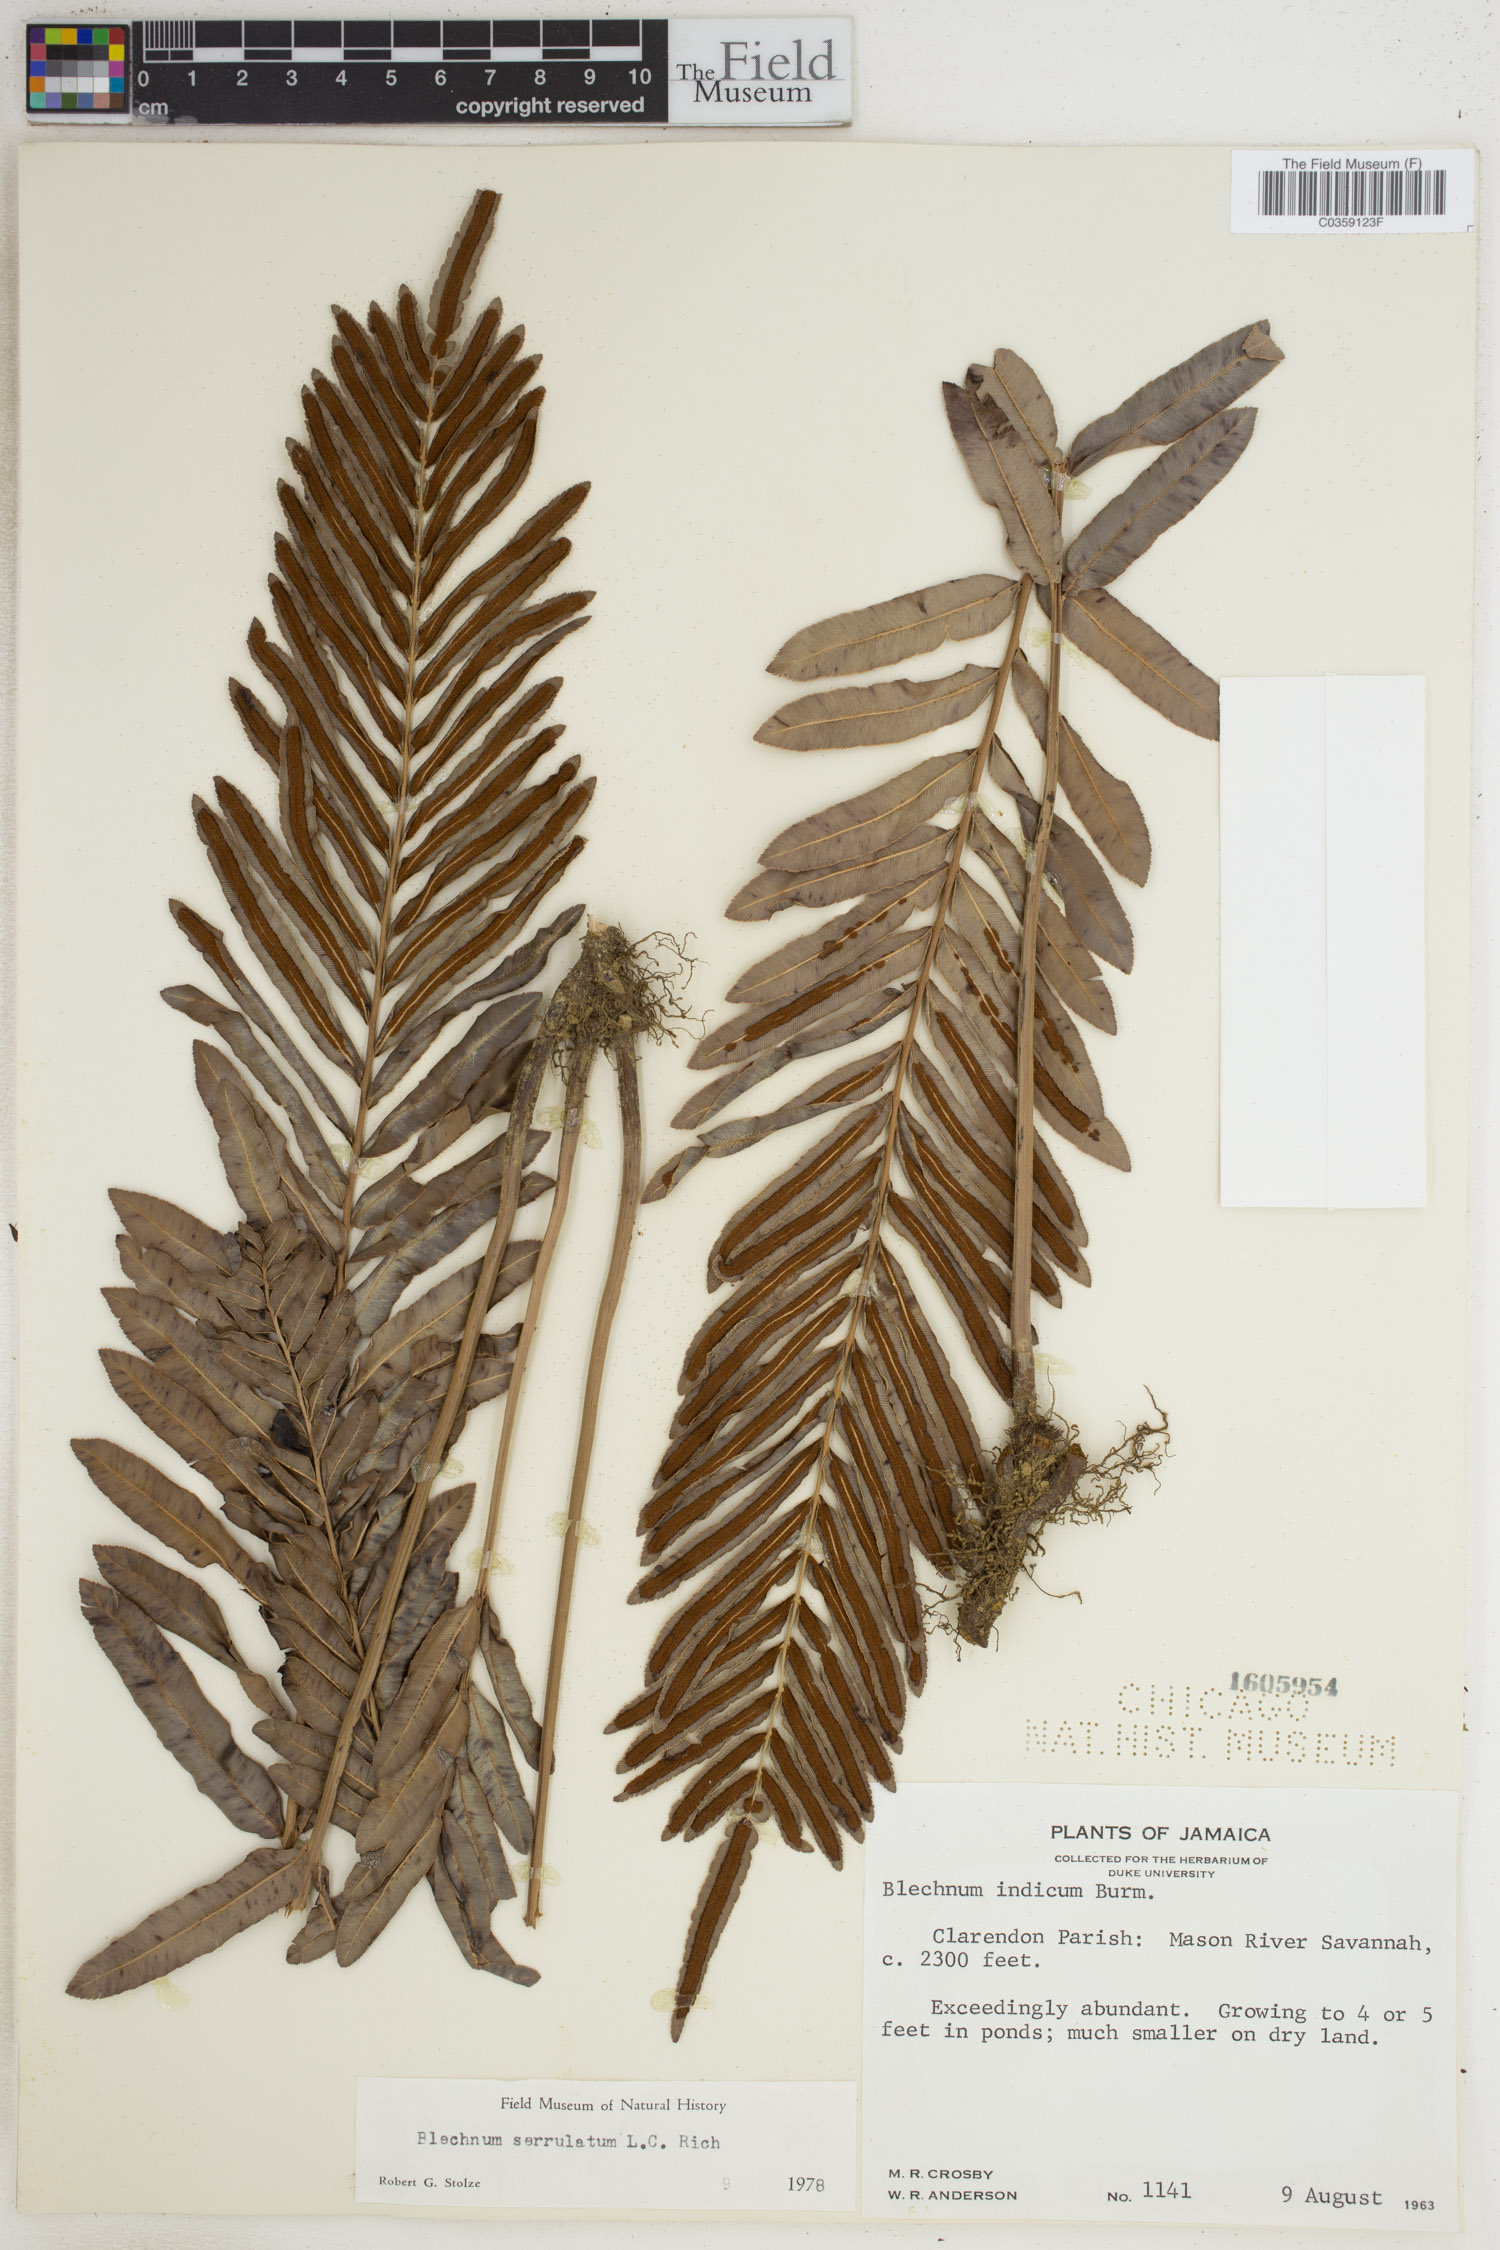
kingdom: Plantae
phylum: Tracheophyta
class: Polypodiopsida
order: Polypodiales
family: Blechnaceae
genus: Telmatoblechnum
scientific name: Telmatoblechnum serrulatum
